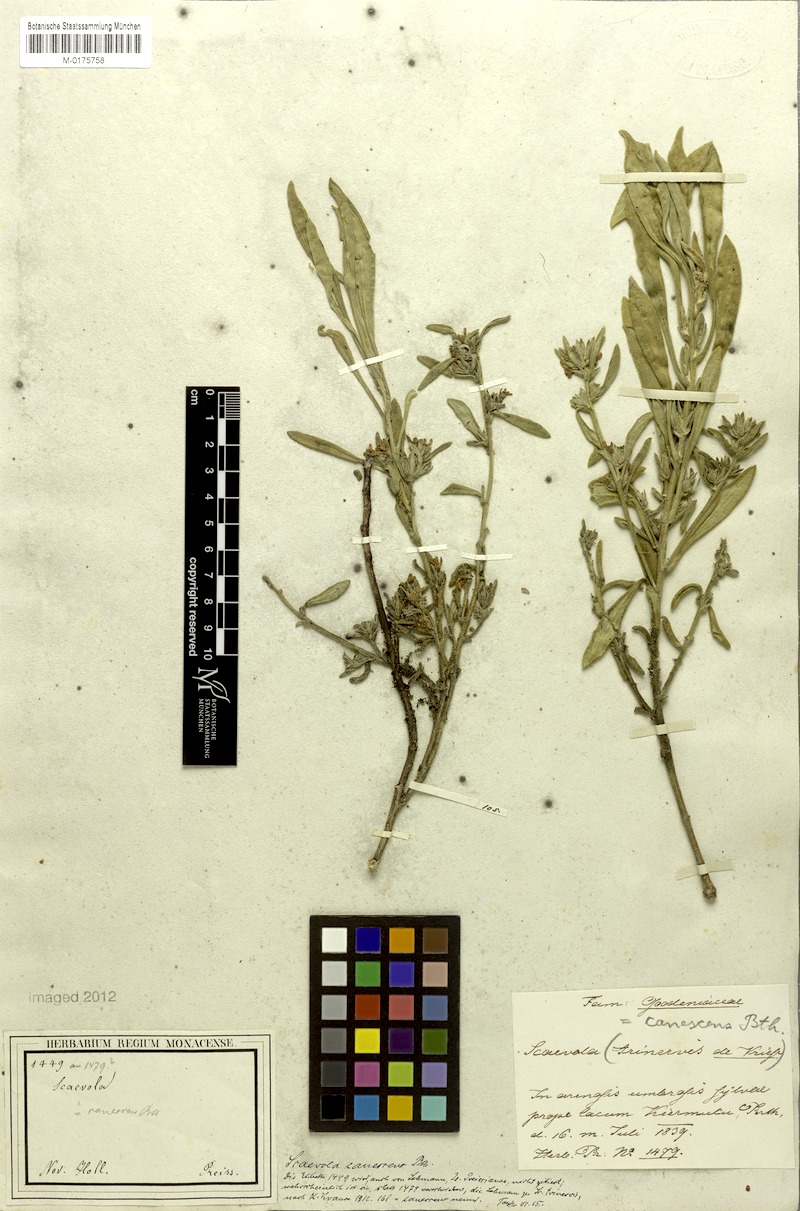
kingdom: Plantae
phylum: Tracheophyta
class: Magnoliopsida
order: Asterales
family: Goodeniaceae
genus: Scaevola
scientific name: Scaevola canescens
